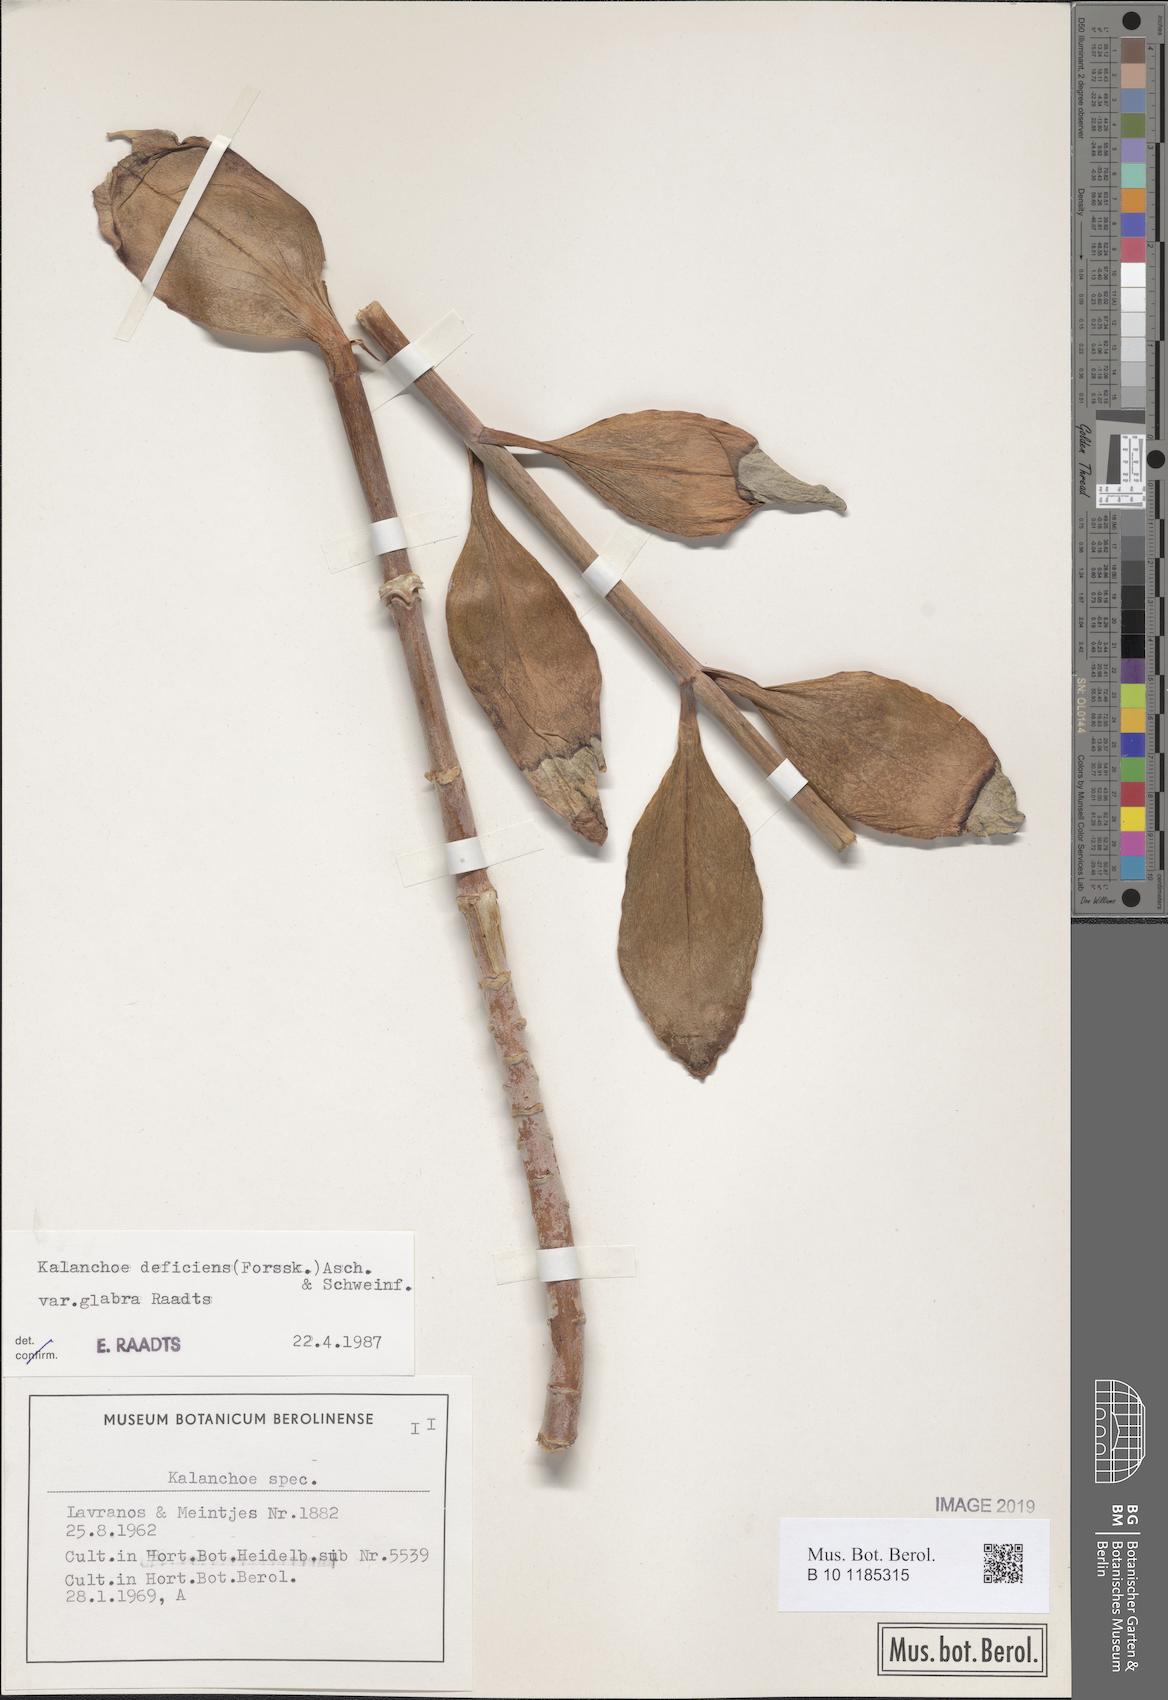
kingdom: Plantae
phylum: Tracheophyta
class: Magnoliopsida
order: Saxifragales
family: Crassulaceae
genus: Kalanchoe
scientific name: Kalanchoe deficiens
